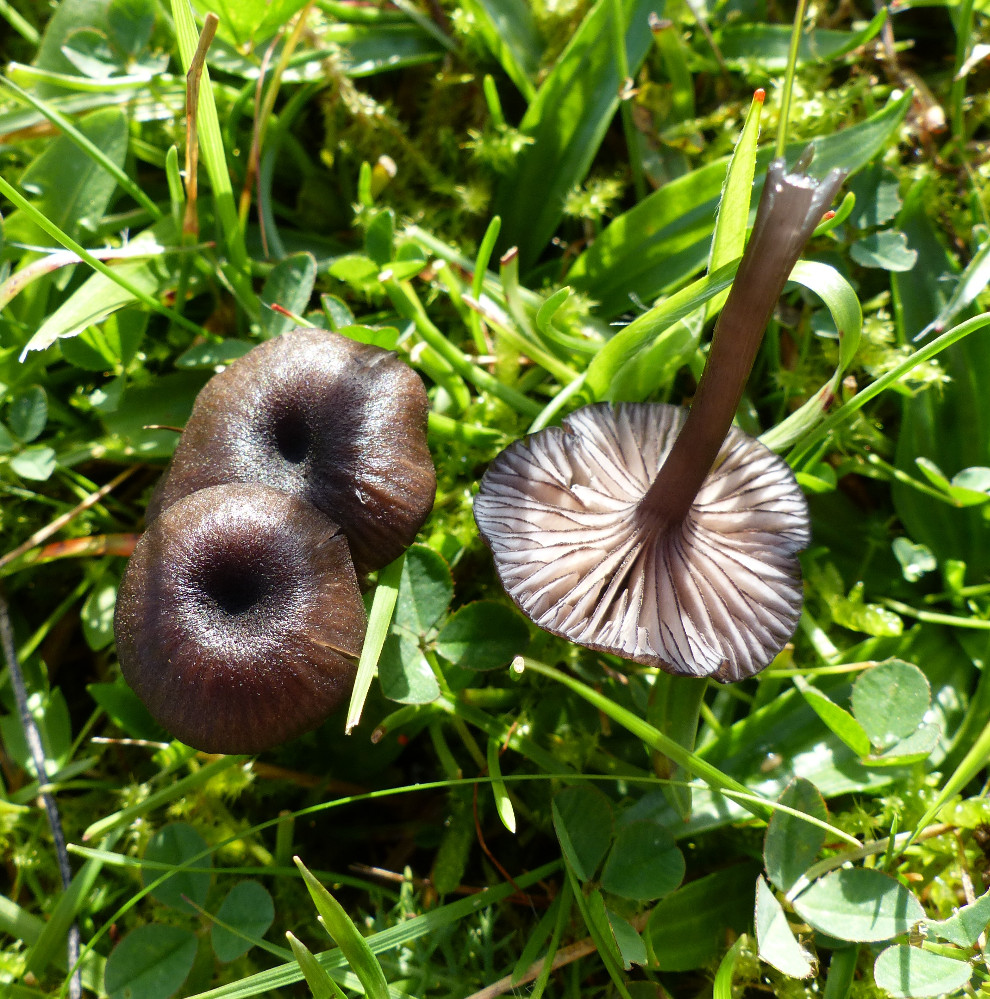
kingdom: Fungi
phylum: Basidiomycota
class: Agaricomycetes
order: Agaricales
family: Entolomataceae
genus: Entoloma
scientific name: Entoloma
